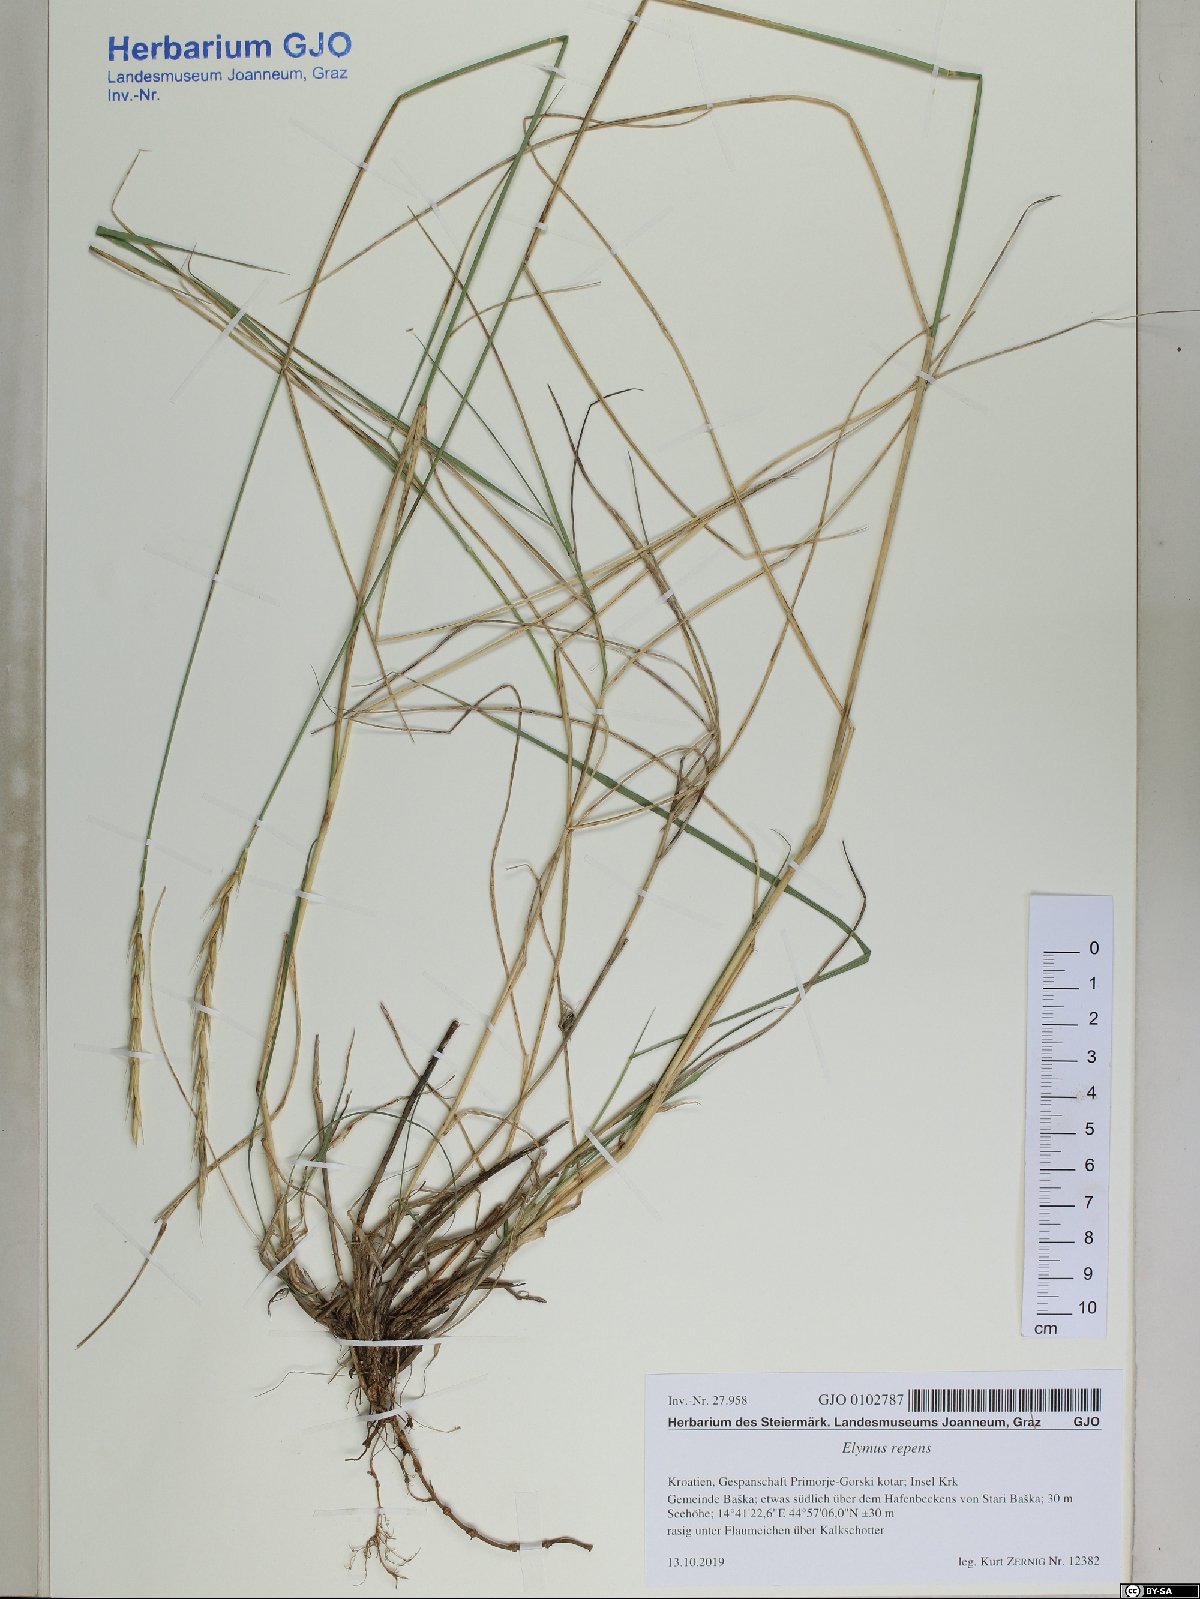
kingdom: Plantae
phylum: Tracheophyta
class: Liliopsida
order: Poales
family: Poaceae
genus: Elymus
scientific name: Elymus repens
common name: Quackgrass
